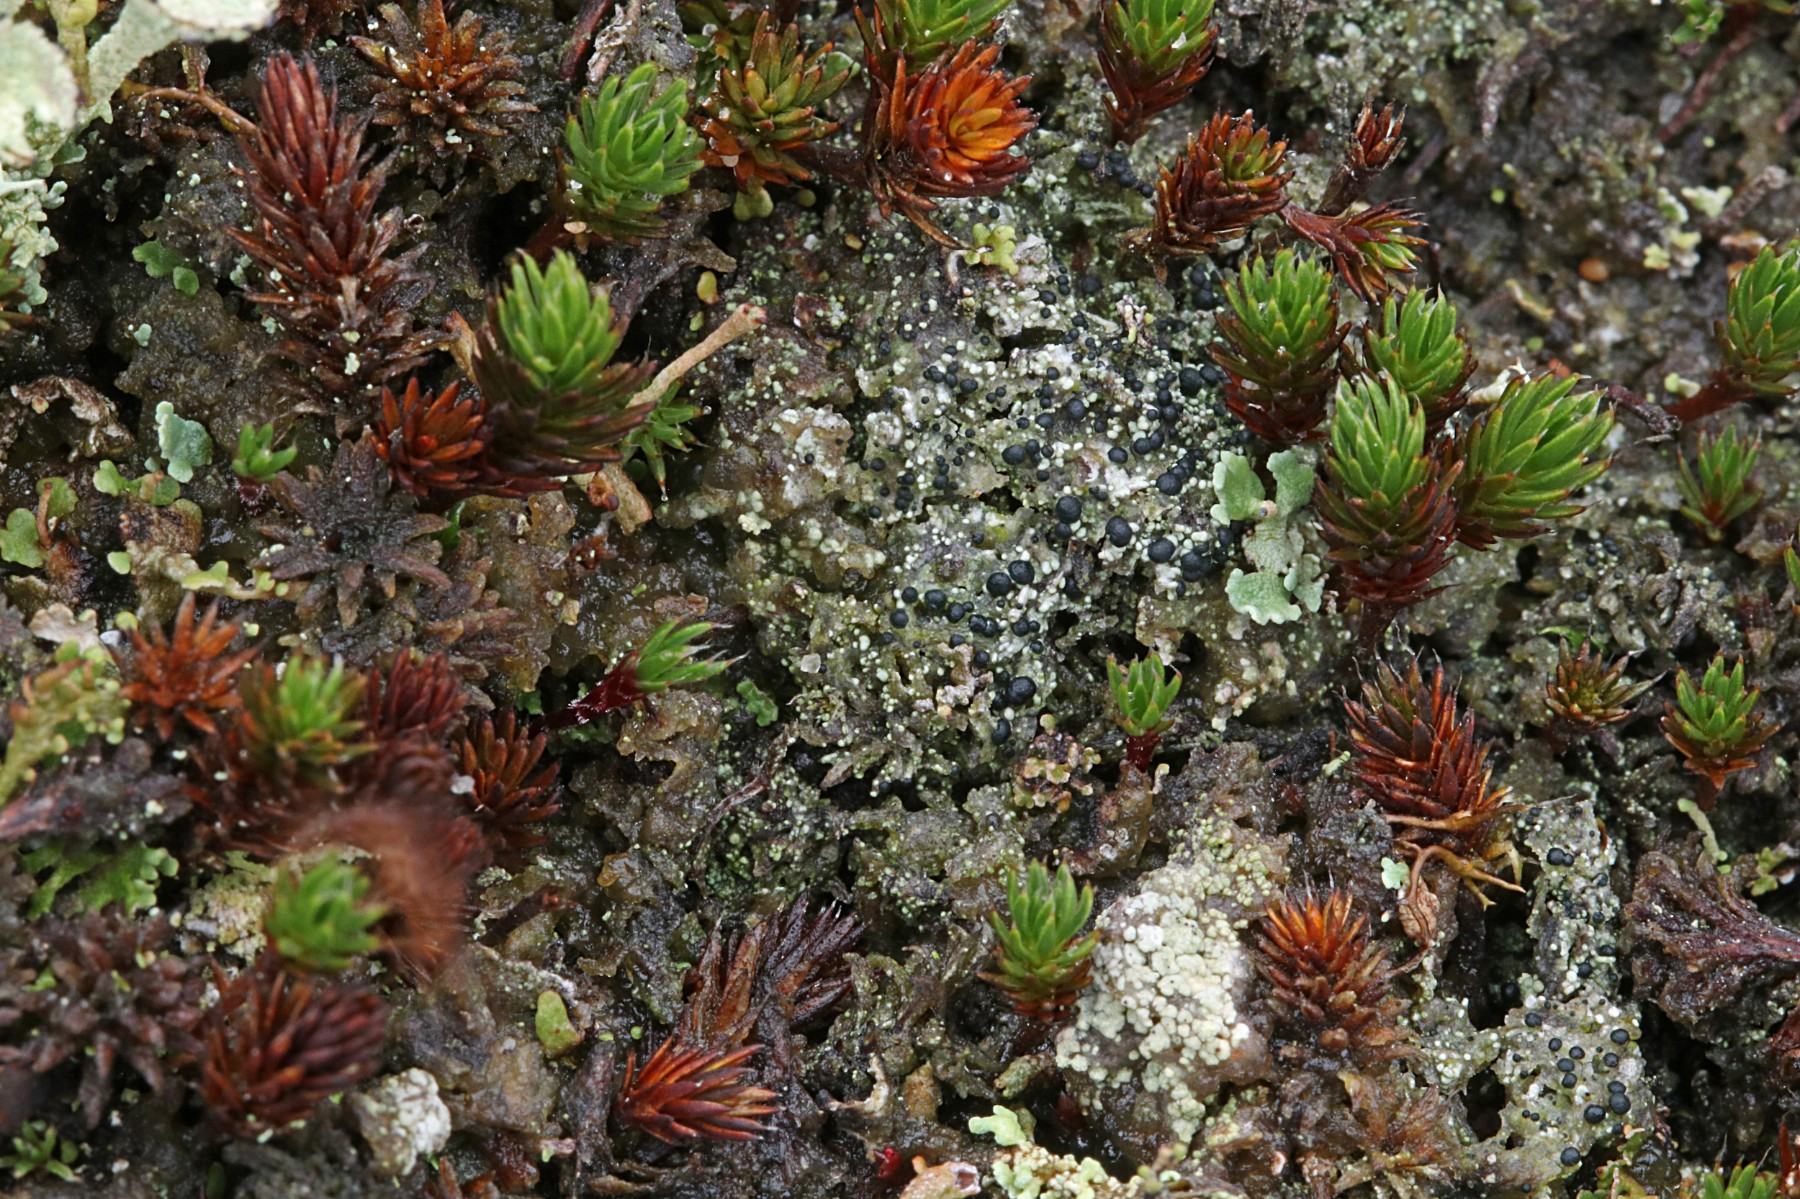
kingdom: Fungi
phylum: Ascomycota
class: Lecanoromycetes
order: Lecanorales
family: Byssolomataceae
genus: Micarea
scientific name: Micarea lignaria
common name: tørve-knaplav
